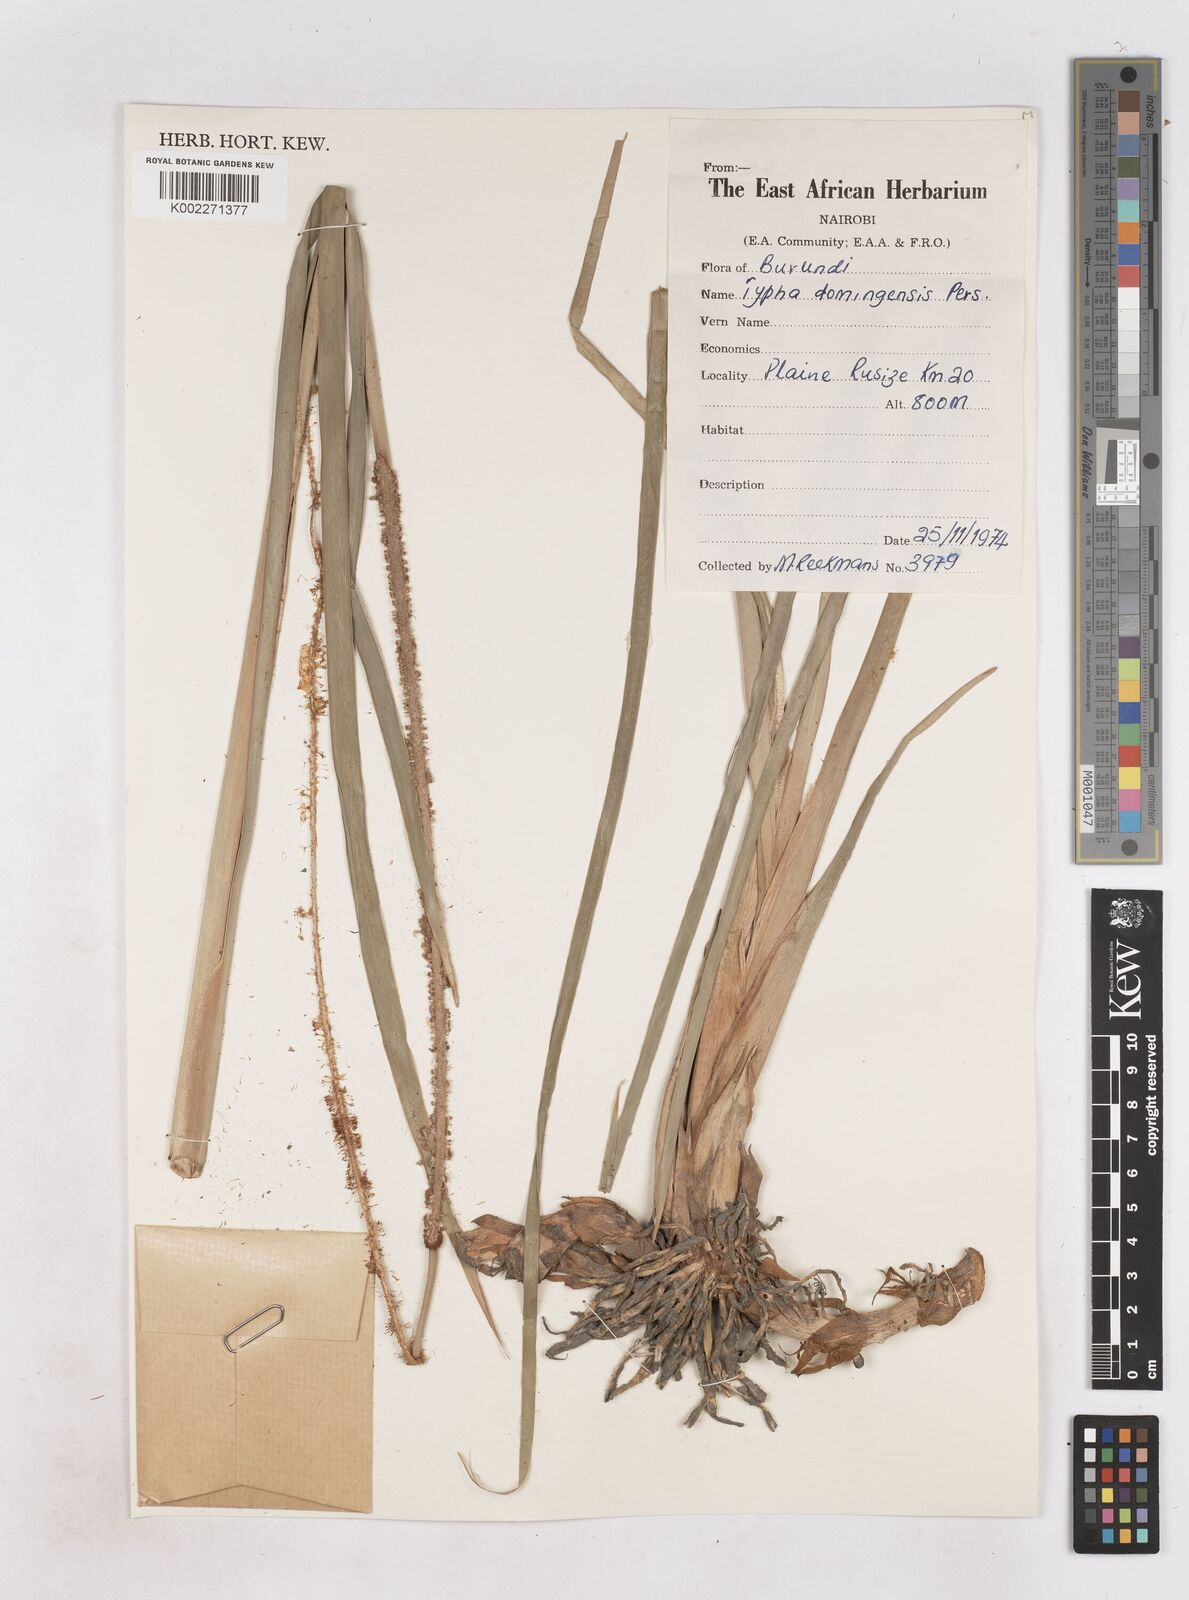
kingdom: Plantae
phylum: Tracheophyta
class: Liliopsida
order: Poales
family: Typhaceae
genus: Typha
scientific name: Typha domingensis
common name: Southern cattail
